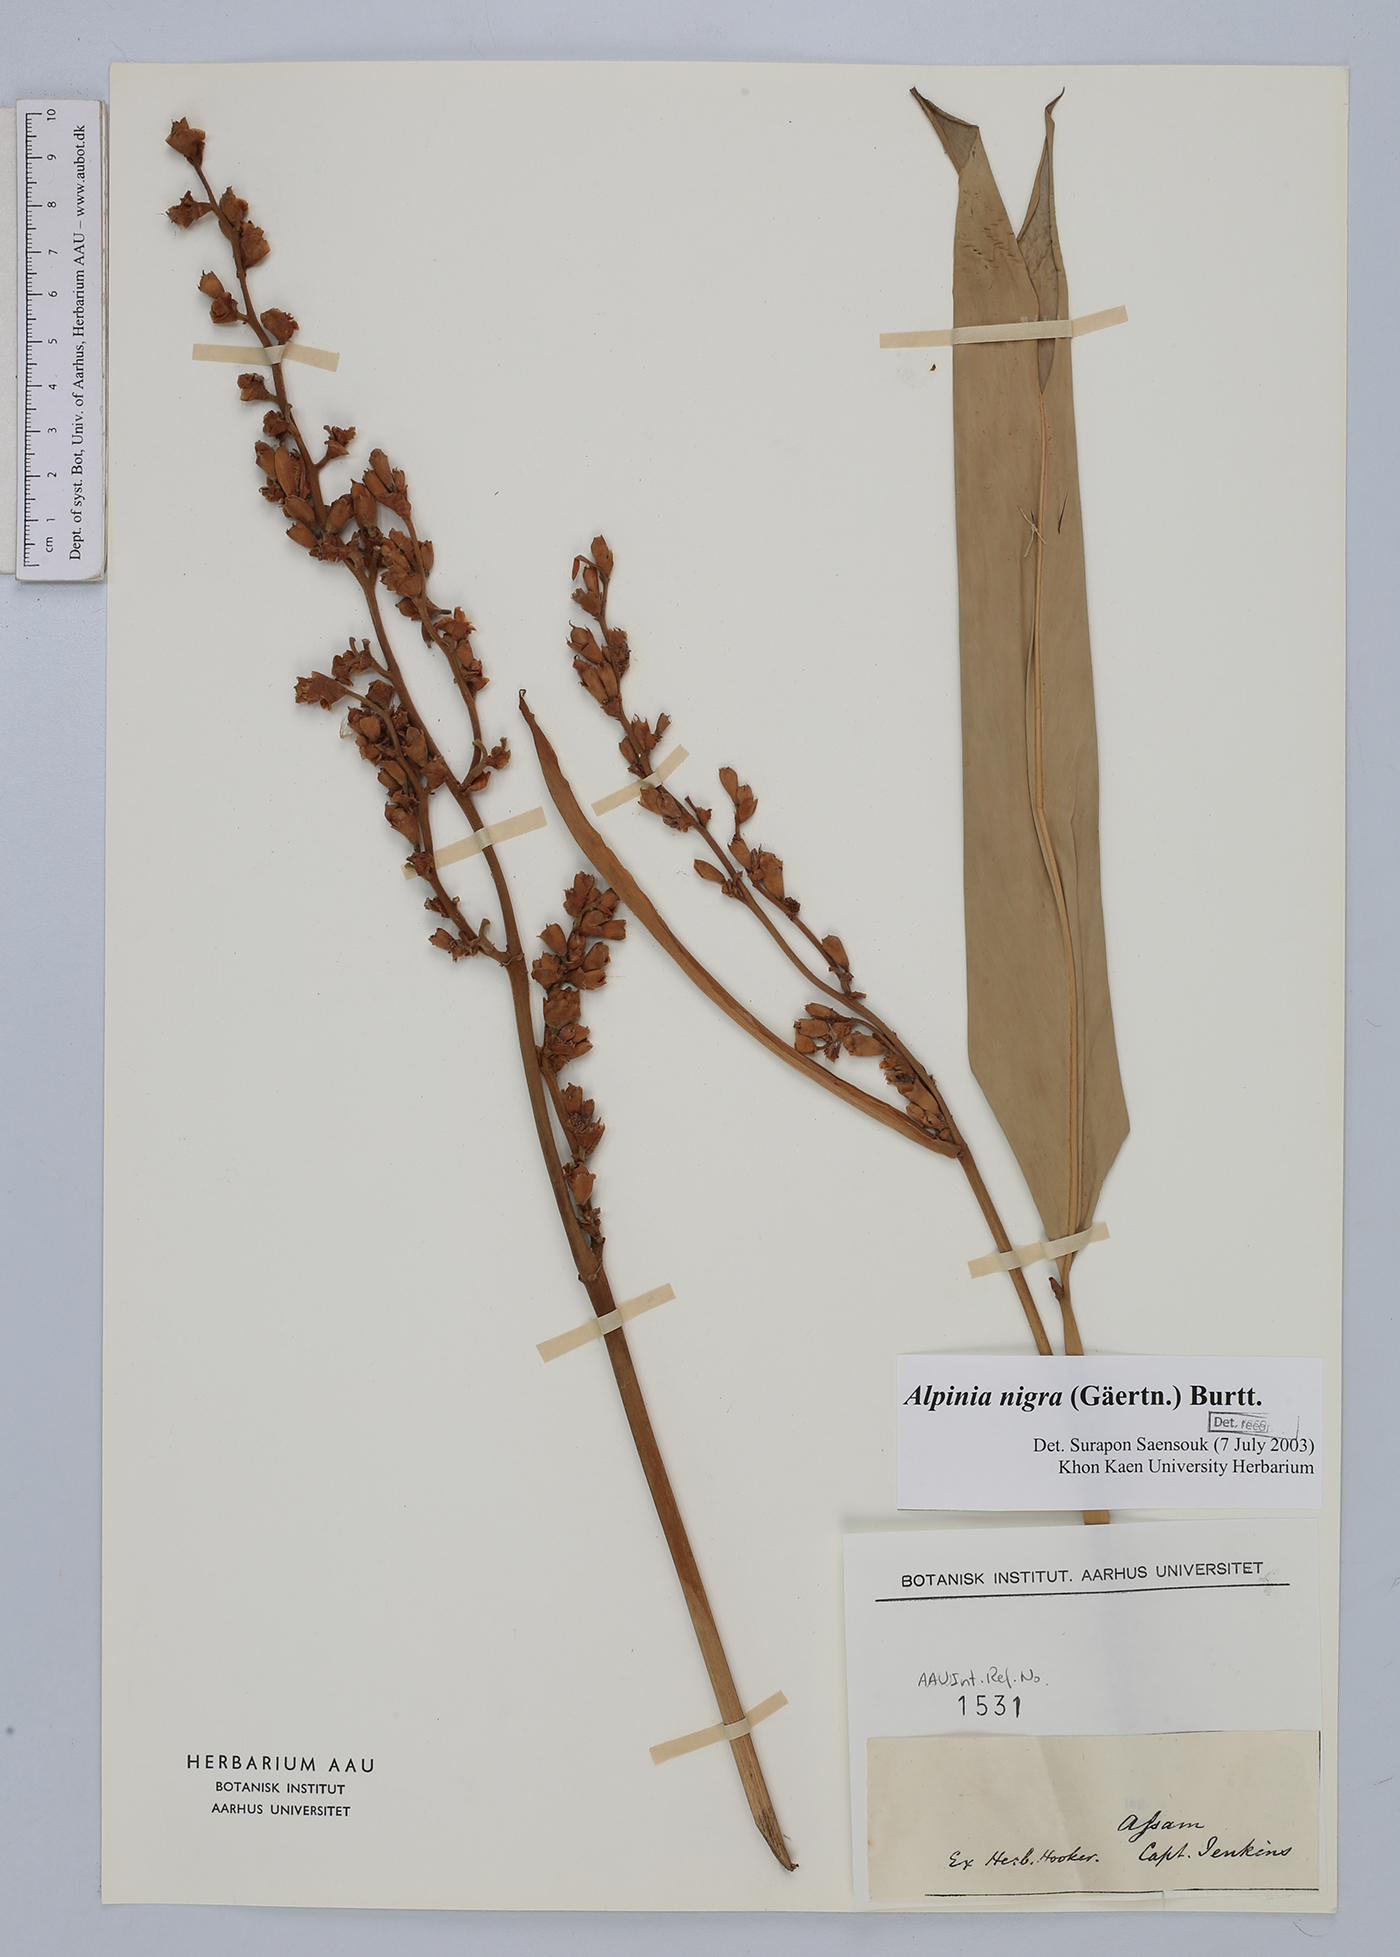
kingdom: Plantae
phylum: Tracheophyta
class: Liliopsida
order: Zingiberales
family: Zingiberaceae
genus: Alpinia
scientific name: Alpinia nigra
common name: Black fruited galanga
